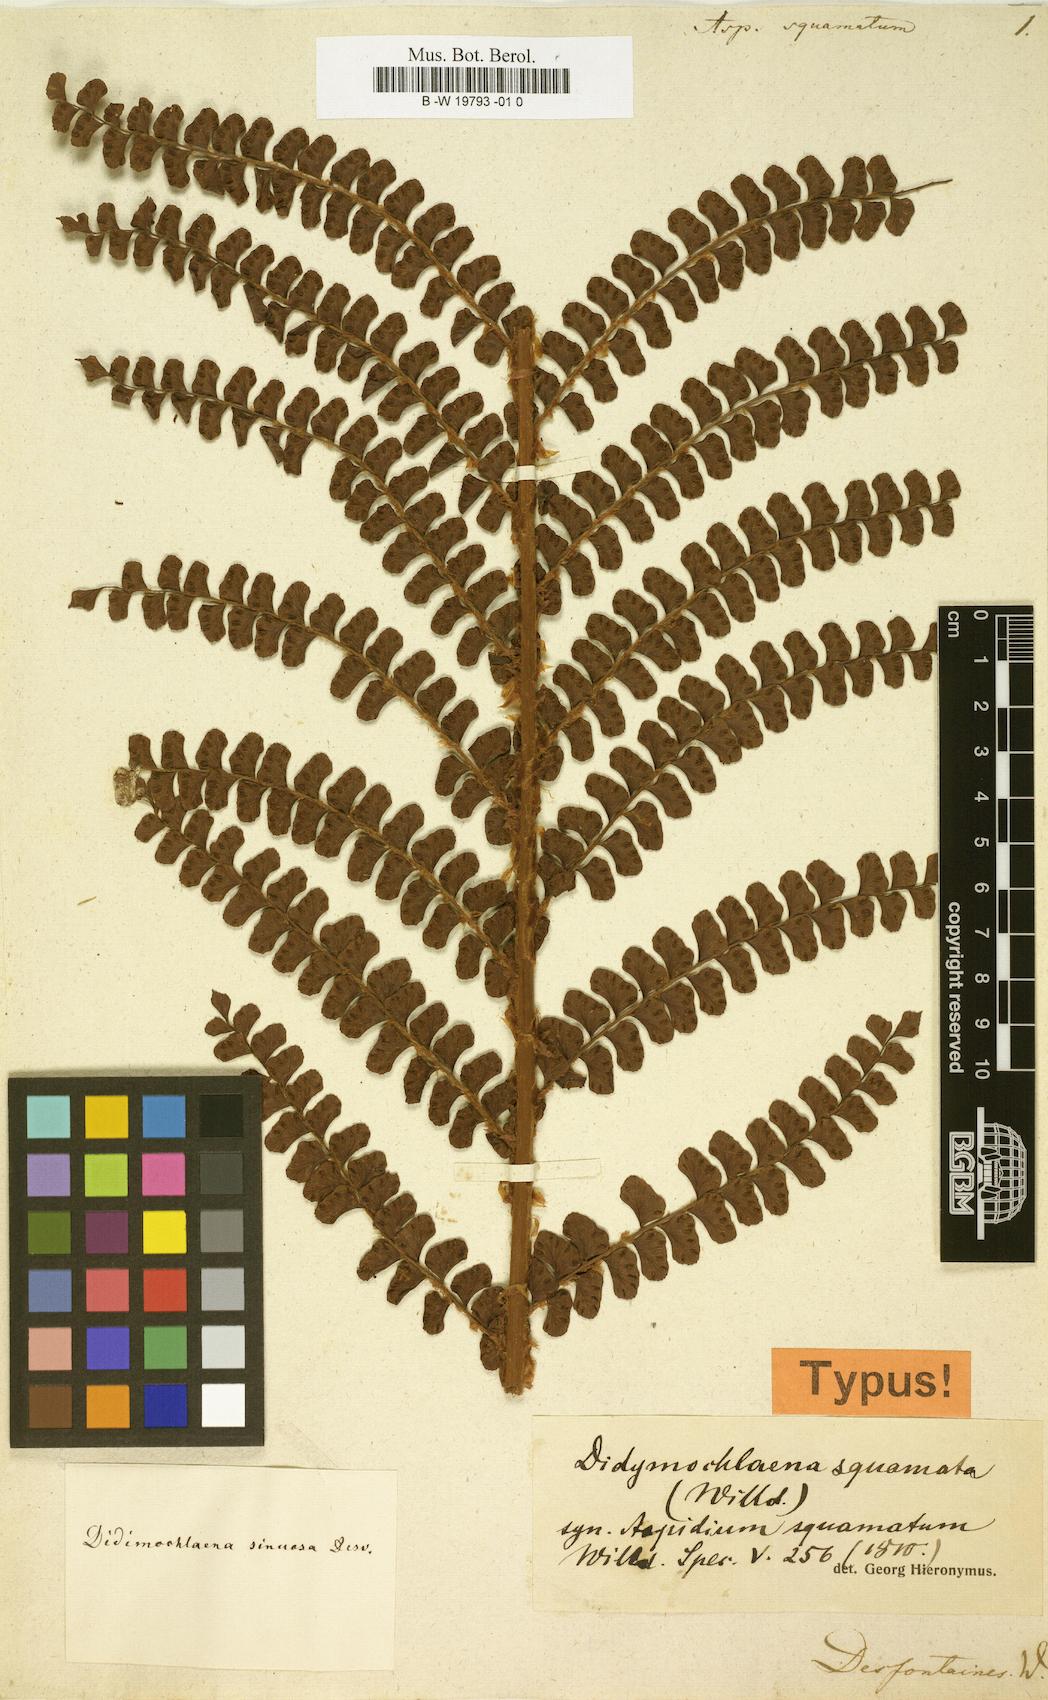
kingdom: Plantae
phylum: Tracheophyta
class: Polypodiopsida
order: Polypodiales
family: Didymochlaenaceae
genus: Didymochlaena
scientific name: Didymochlaena squamata
